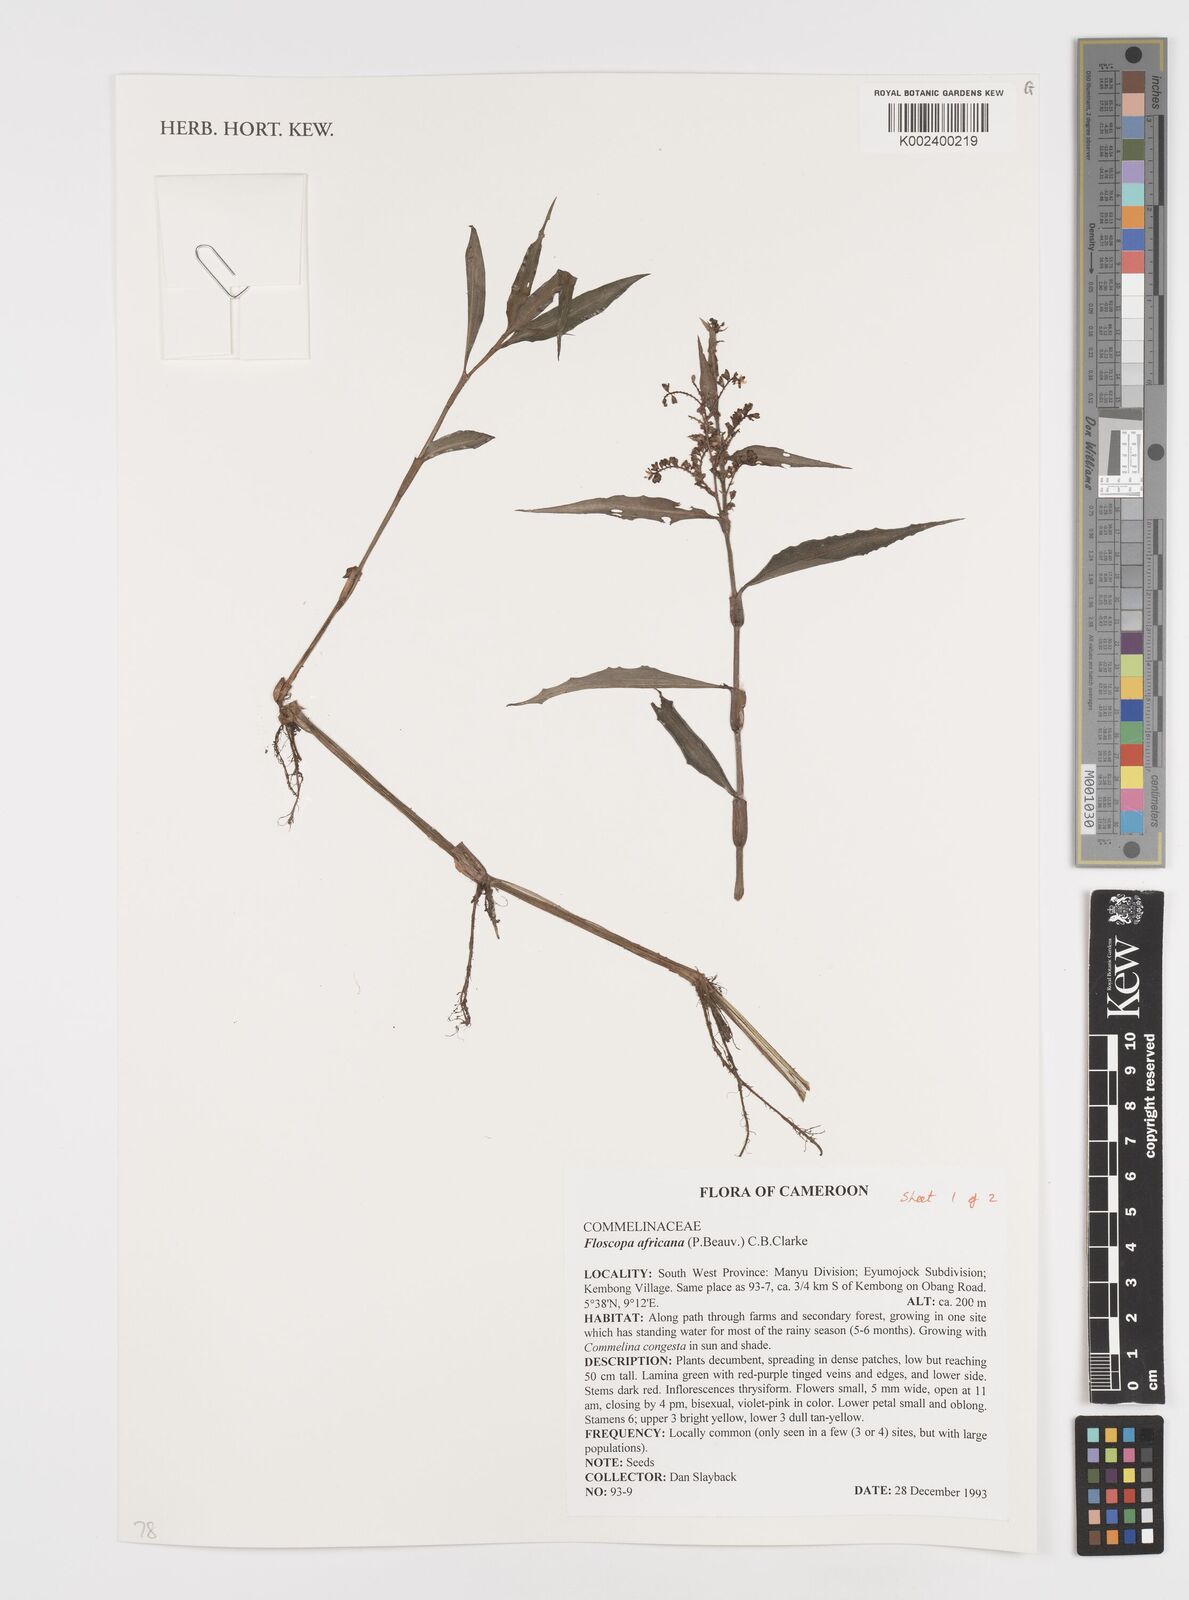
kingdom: Plantae
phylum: Tracheophyta
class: Liliopsida
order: Commelinales
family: Commelinaceae
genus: Floscopa
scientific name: Floscopa africana
